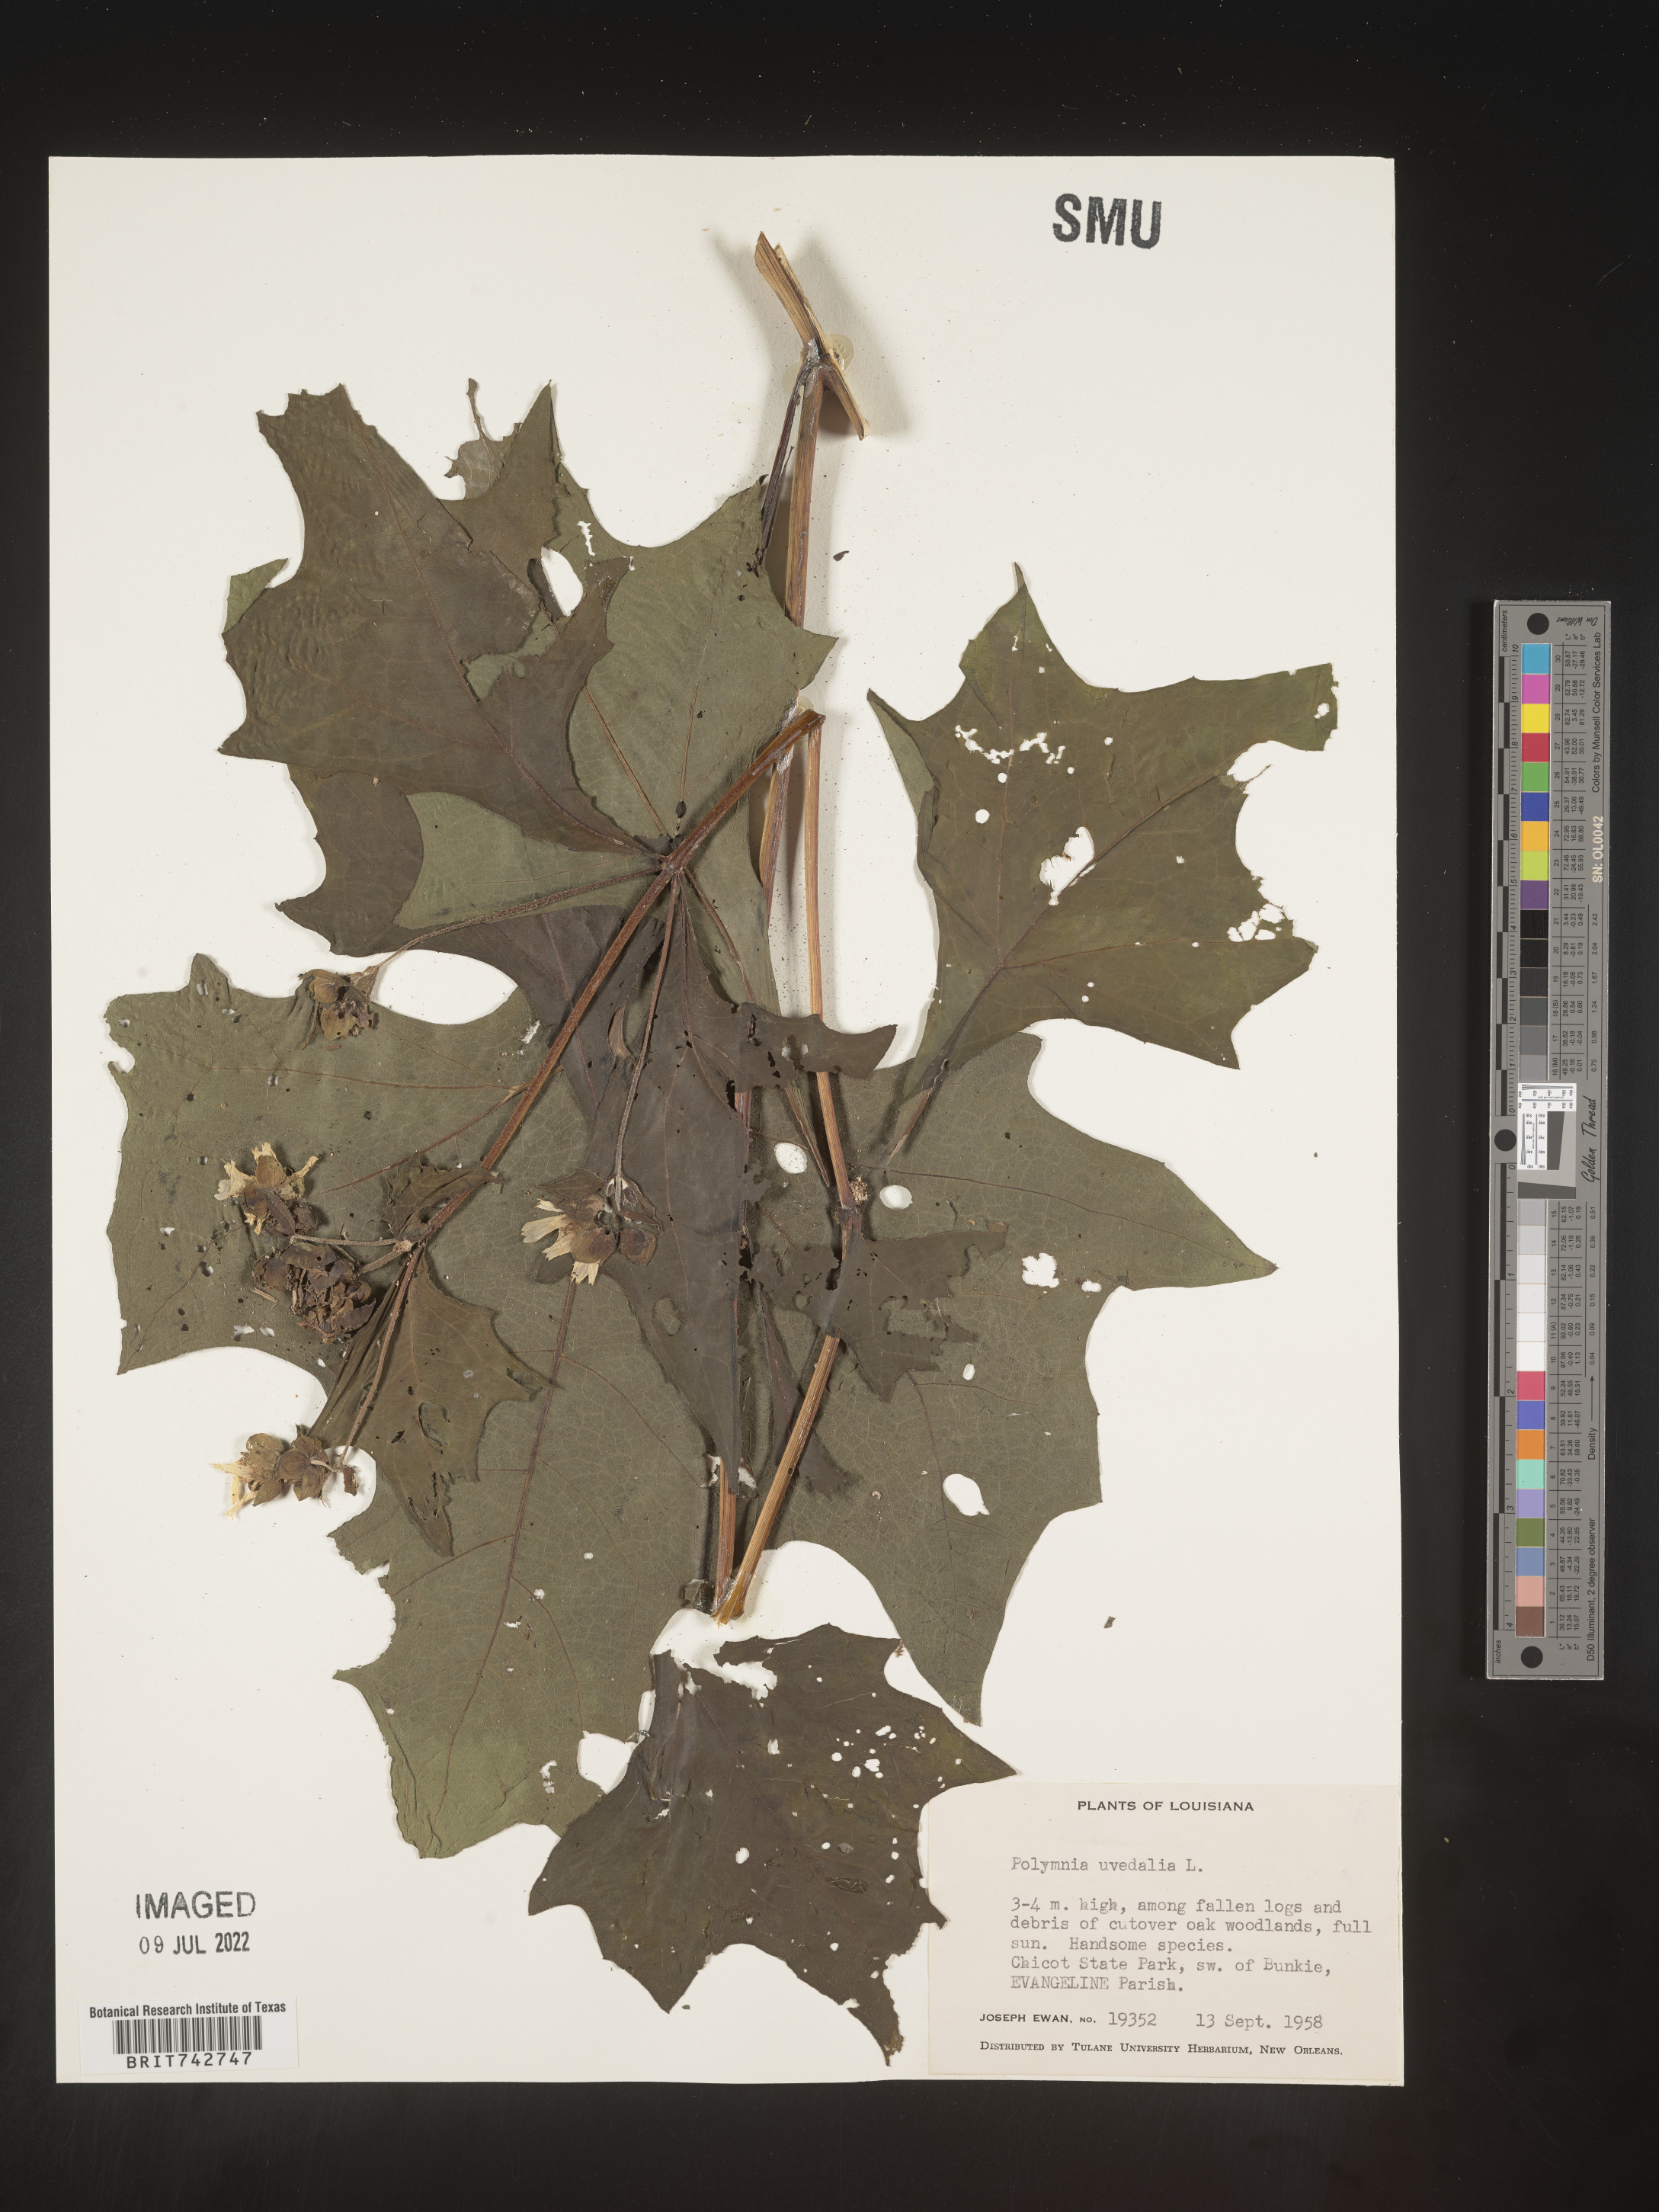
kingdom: Plantae
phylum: Tracheophyta
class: Magnoliopsida
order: Asterales
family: Asteraceae
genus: Smallanthus
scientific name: Smallanthus uvedalia
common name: Bear's-foot
